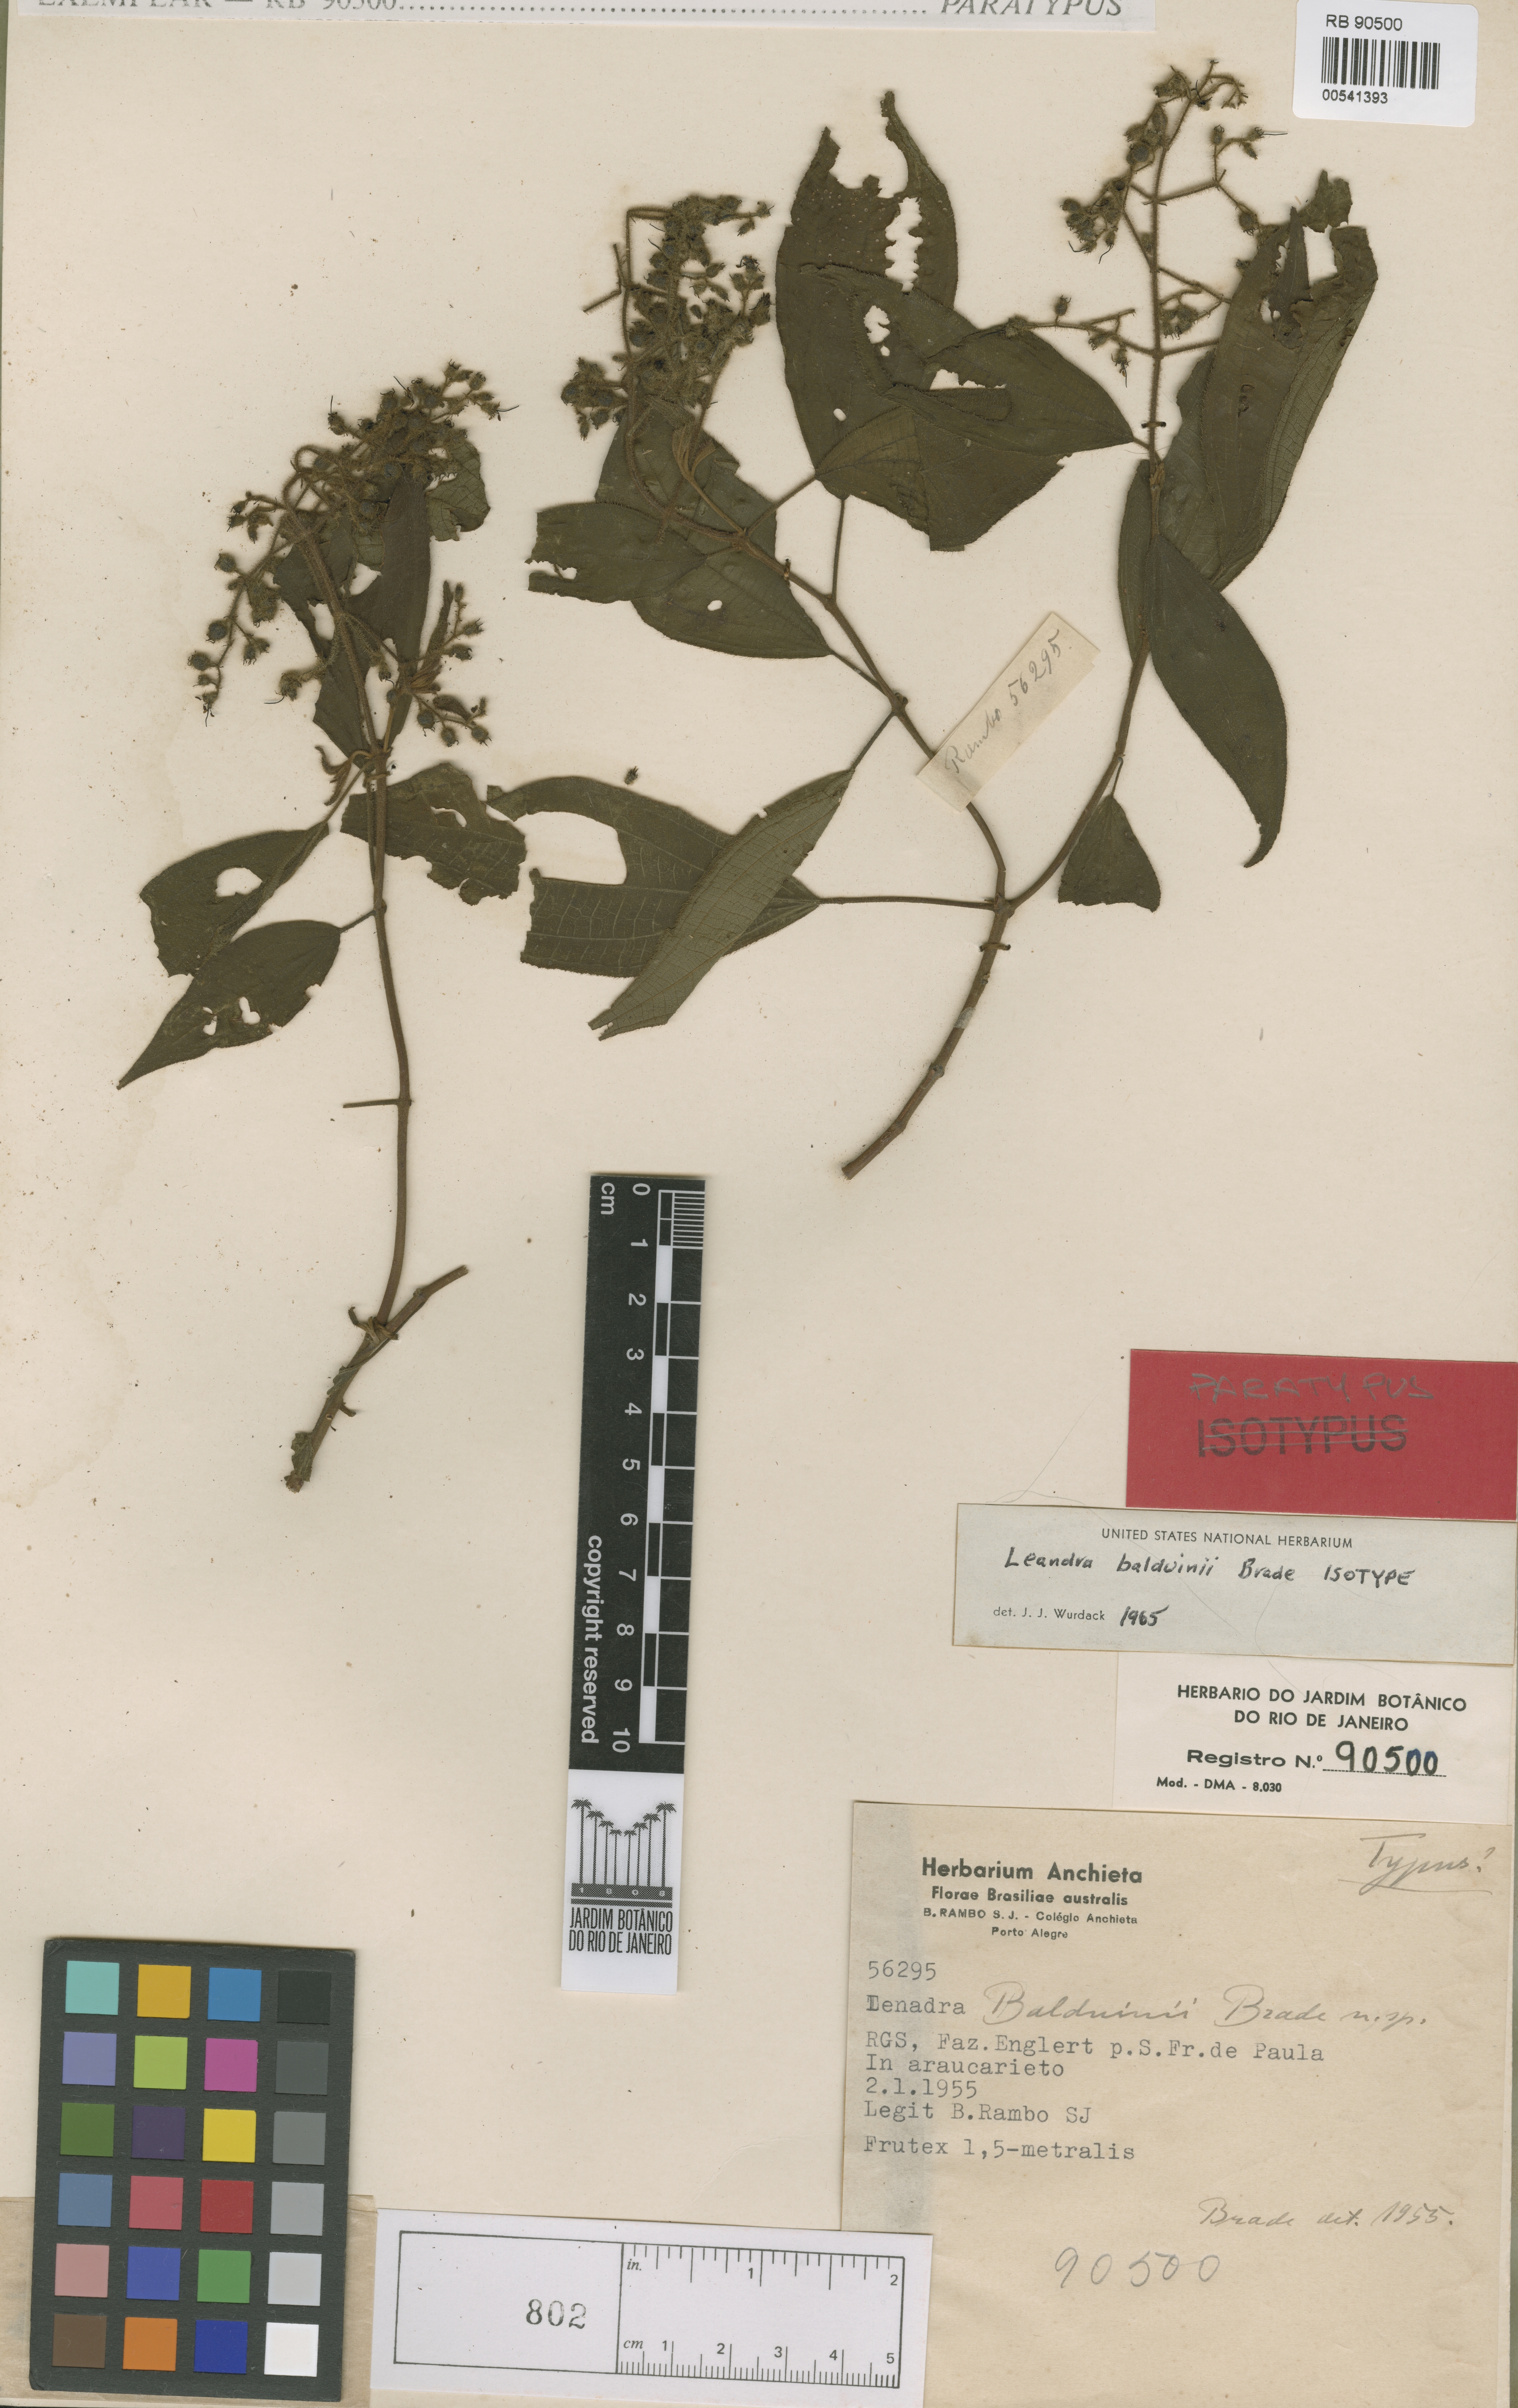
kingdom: Plantae
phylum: Tracheophyta
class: Magnoliopsida
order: Myrtales
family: Melastomataceae
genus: Miconia
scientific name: Miconia alterninervia
